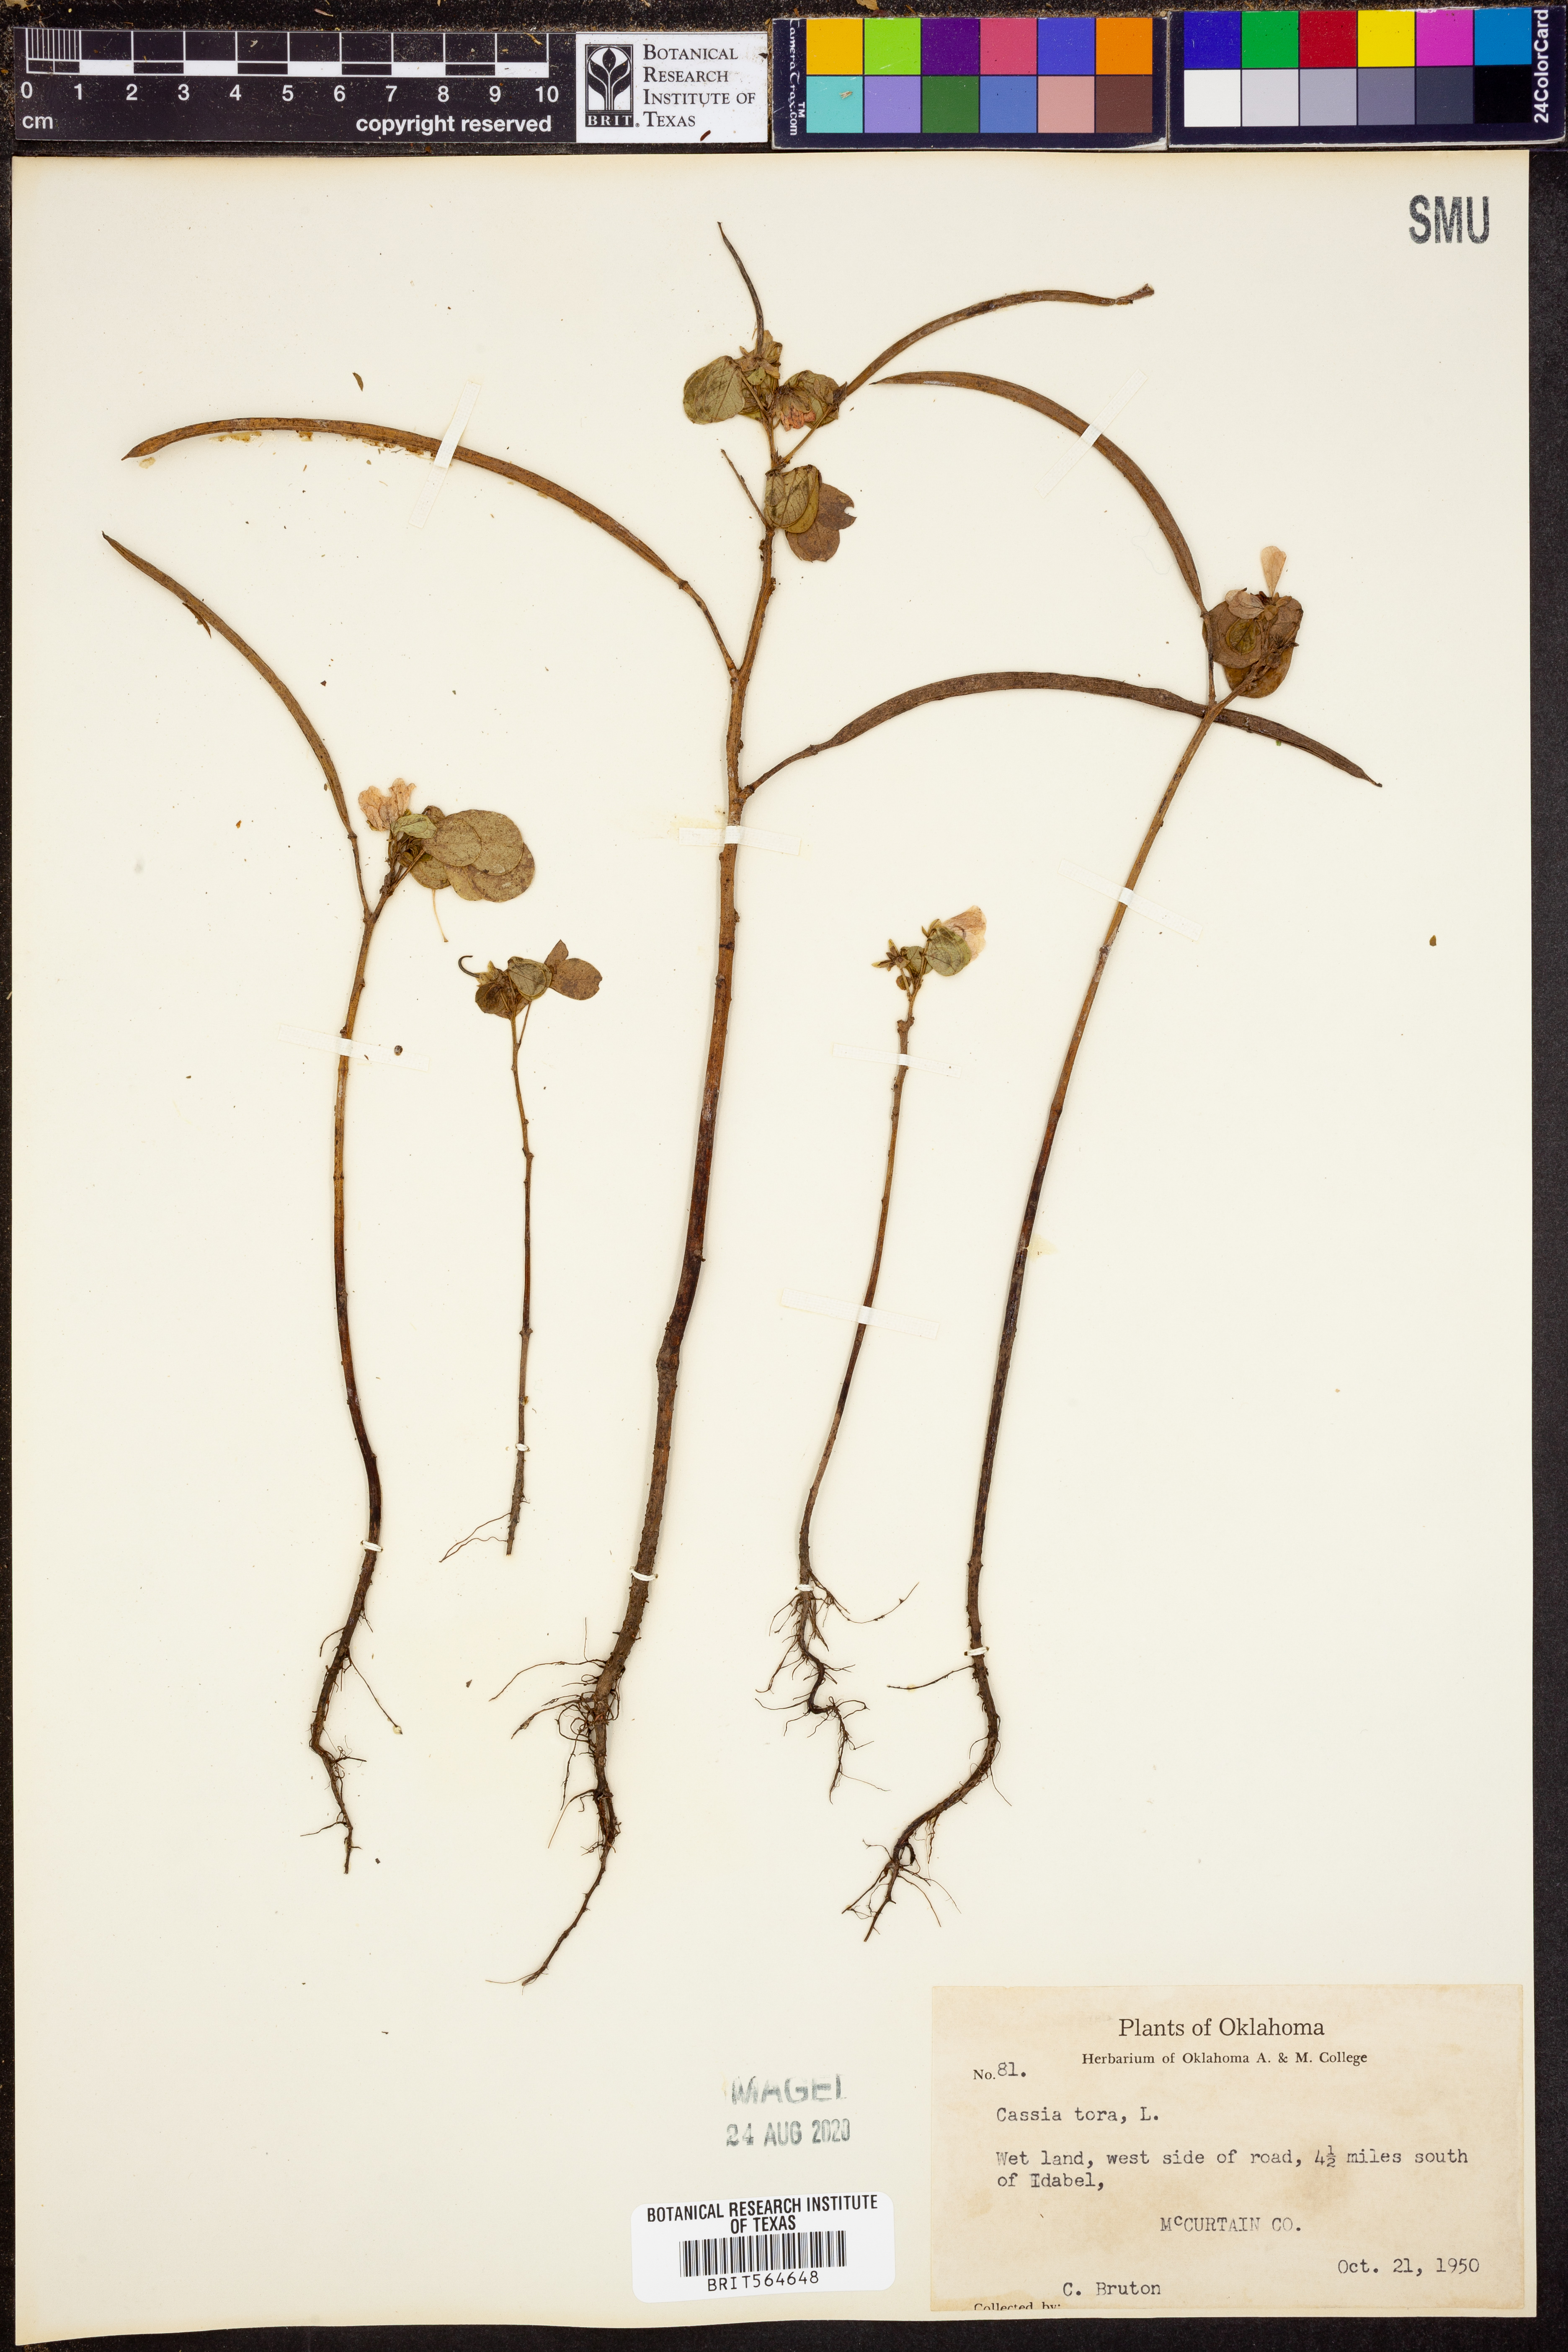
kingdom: Plantae
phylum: Tracheophyta
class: Magnoliopsida
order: Fabales
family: Fabaceae
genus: Senna
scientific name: Senna tora
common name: Sickle senna
